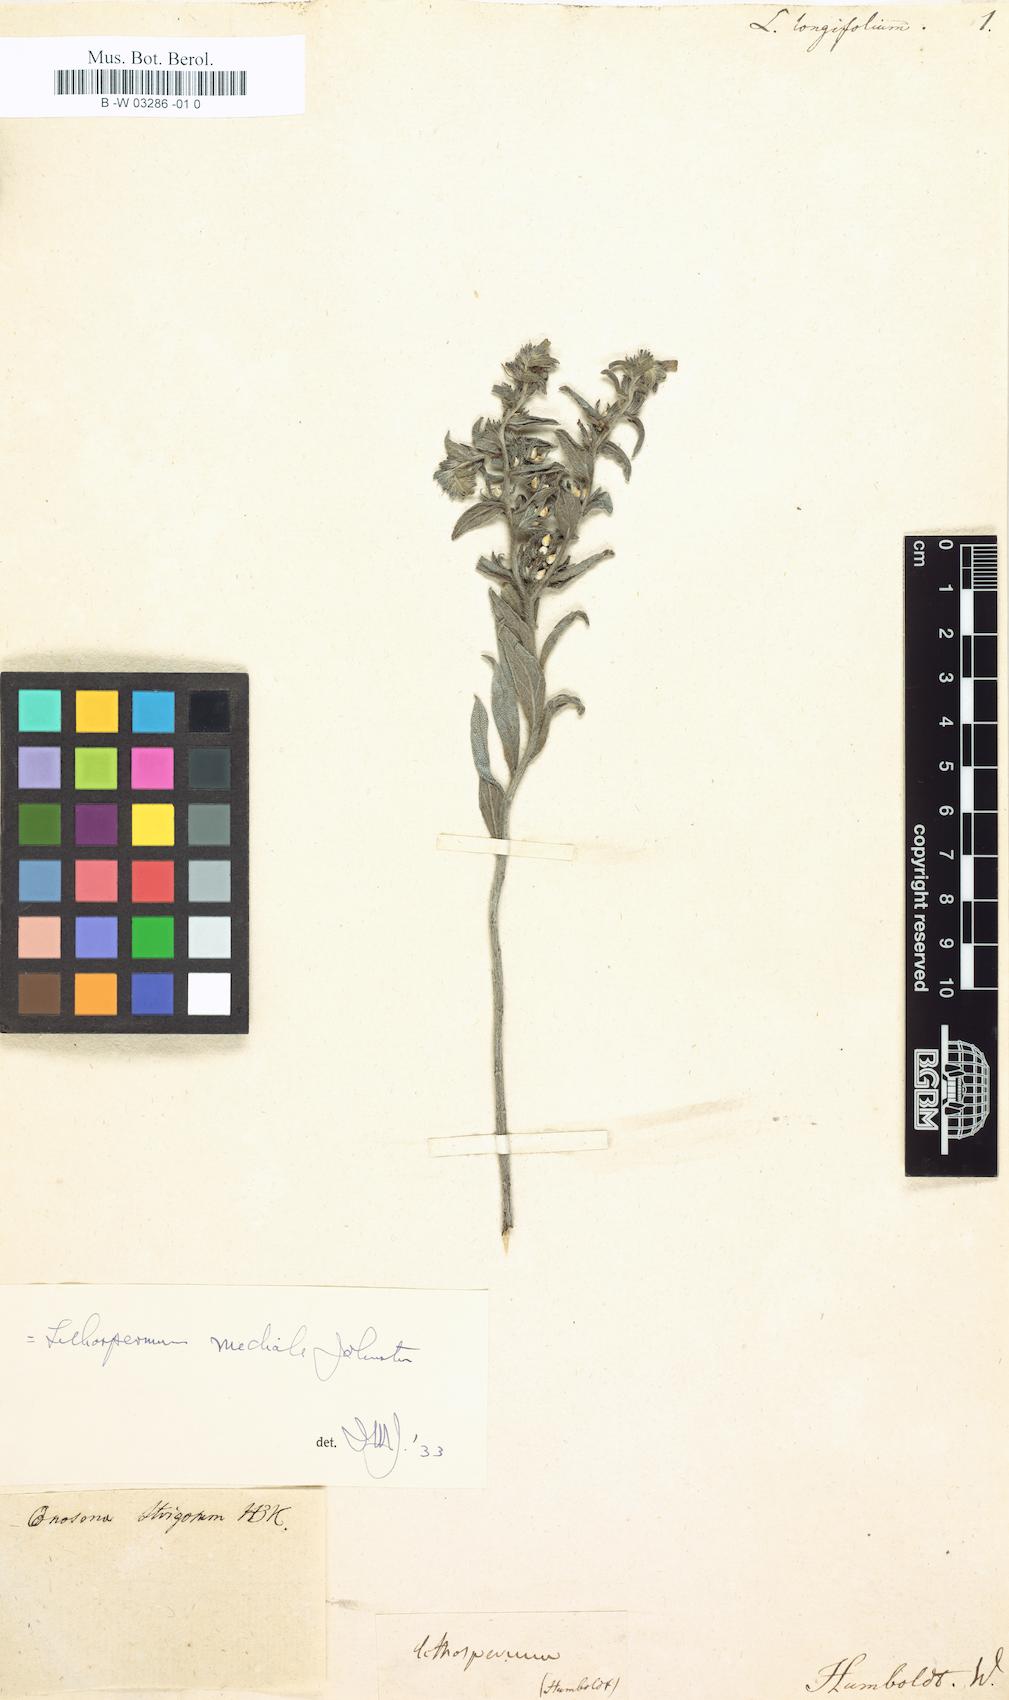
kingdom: Plantae
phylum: Tracheophyta
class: Magnoliopsida
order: Boraginales
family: Boraginaceae
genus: Lithospermum
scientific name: Lithospermum trinervium
